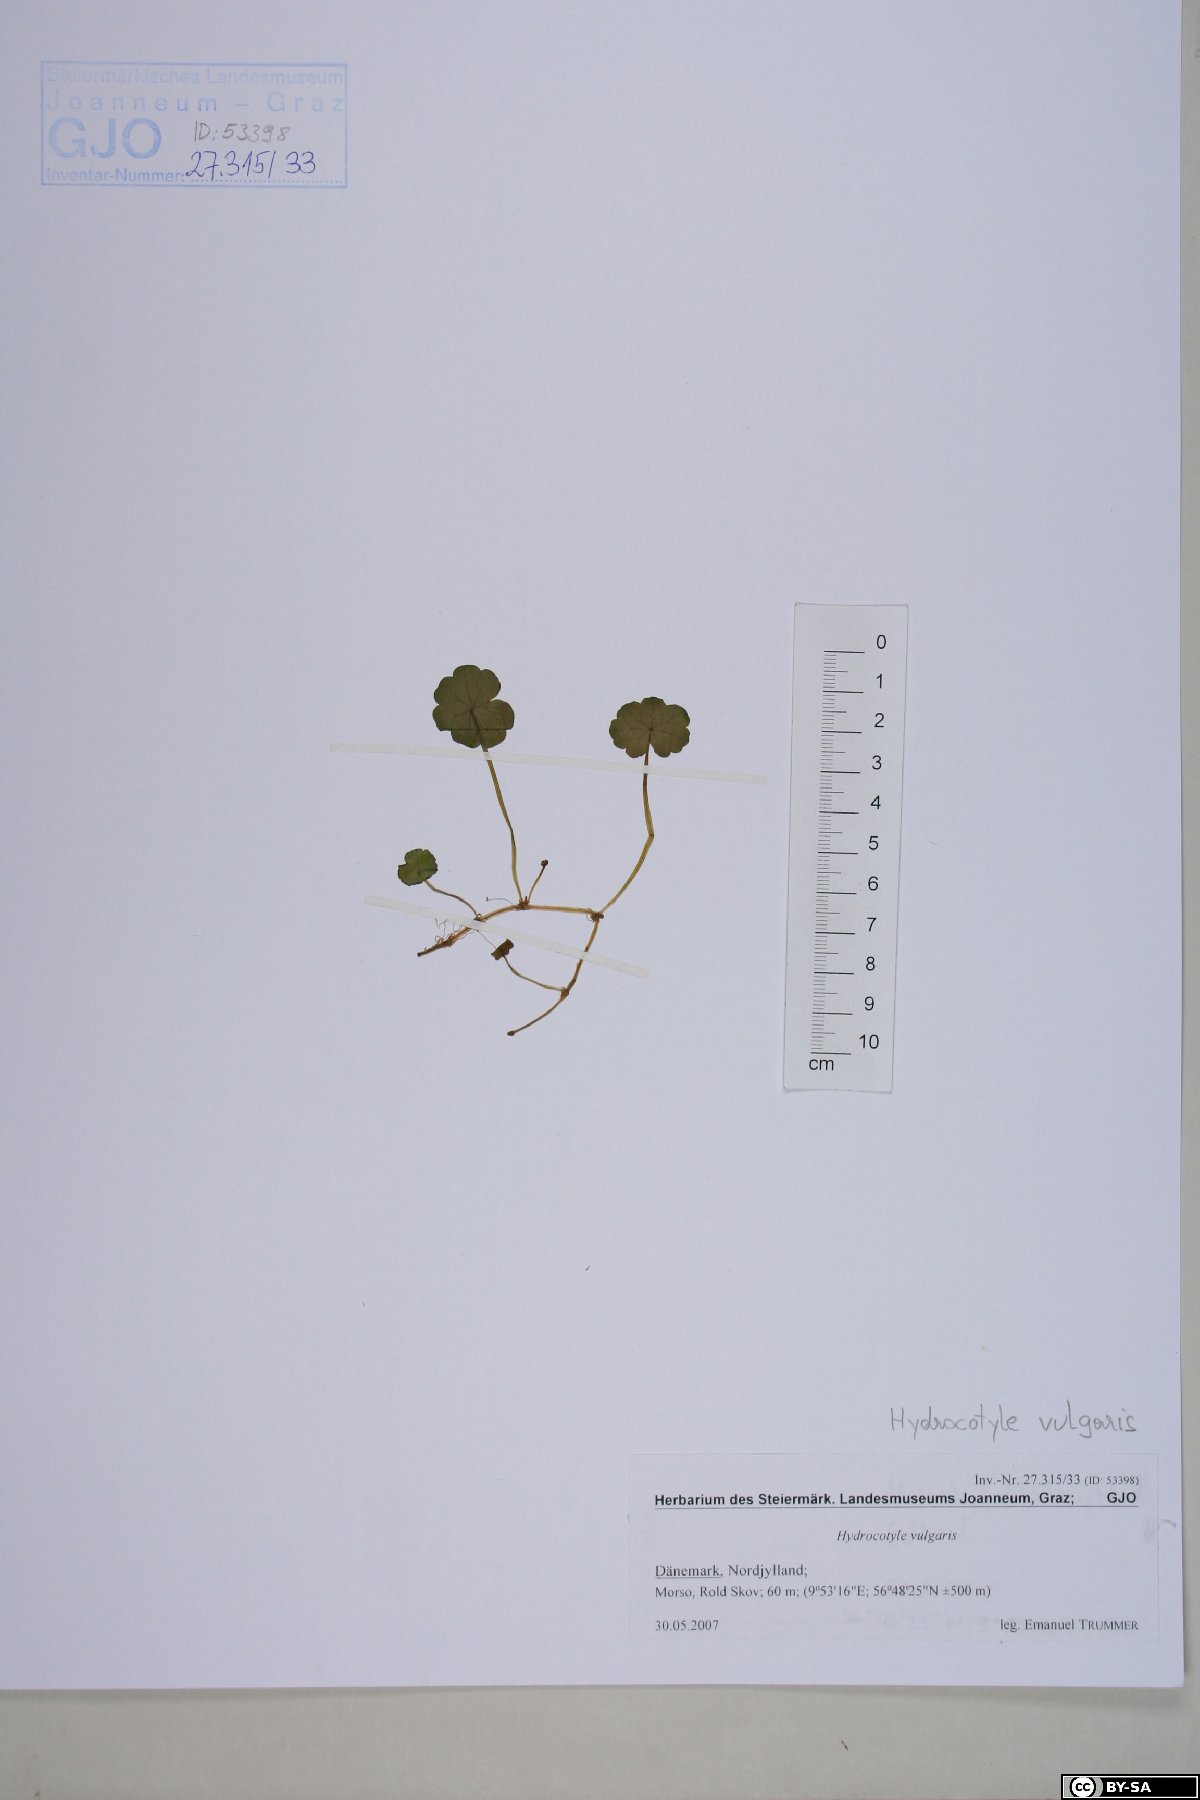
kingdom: Plantae
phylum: Tracheophyta
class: Magnoliopsida
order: Apiales
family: Araliaceae
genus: Hydrocotyle
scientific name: Hydrocotyle vulgaris
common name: Marsh pennywort
